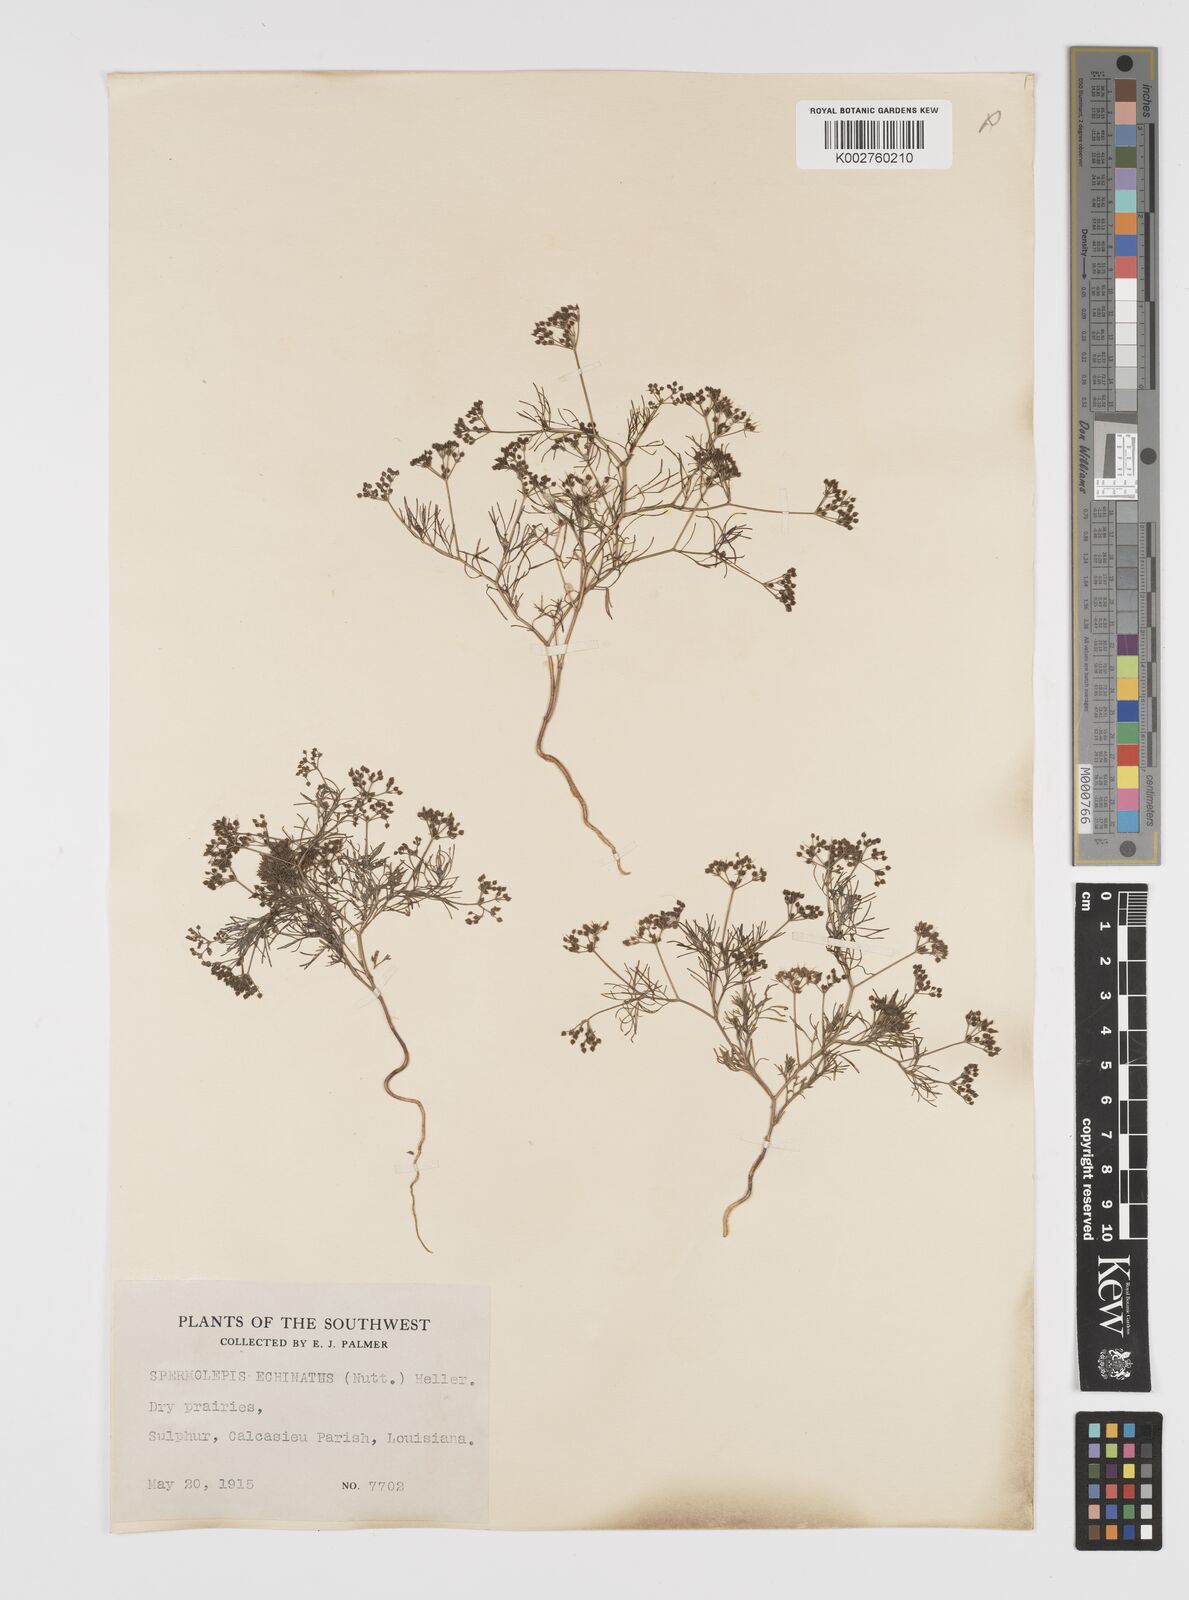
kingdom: Plantae
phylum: Tracheophyta
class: Magnoliopsida
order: Apiales
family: Apiaceae
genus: Spermolepis
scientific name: Spermolepis echinata
